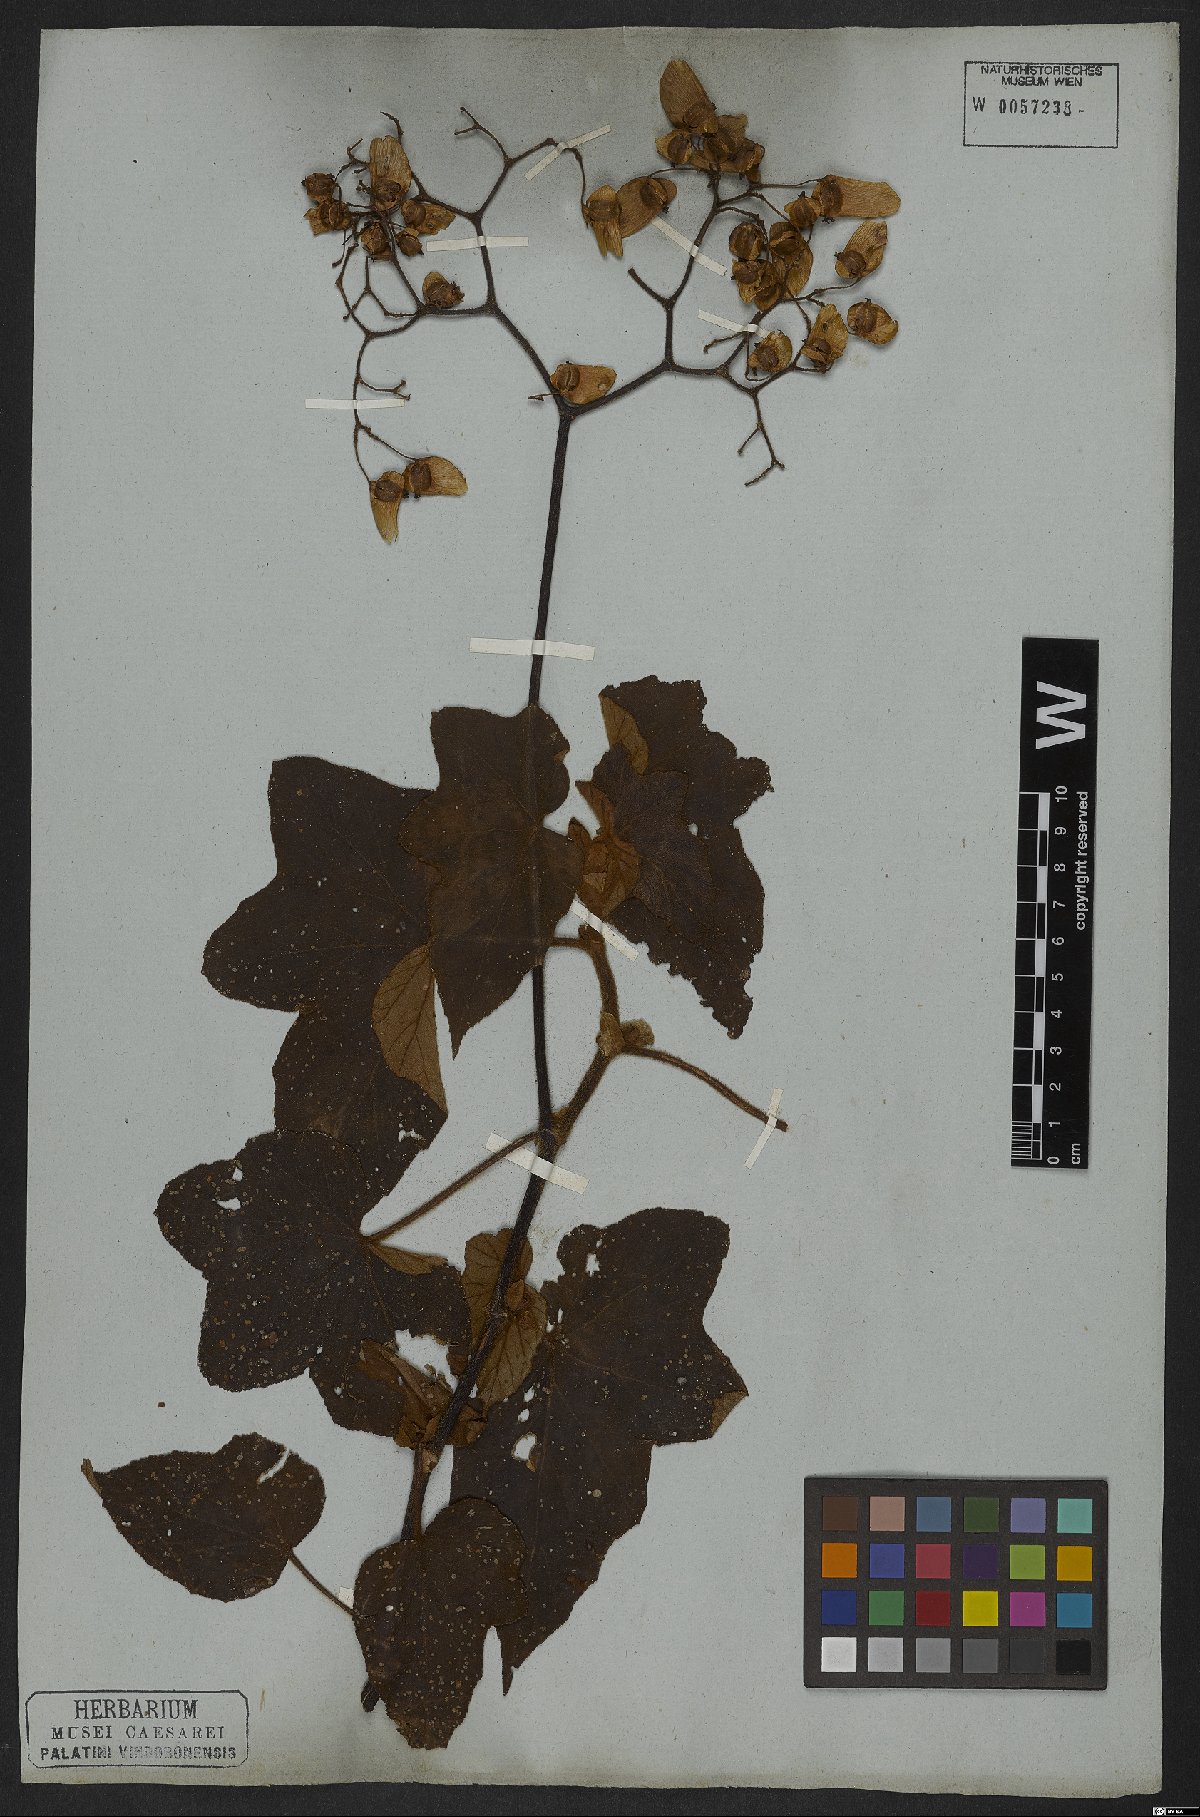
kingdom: Plantae
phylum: Tracheophyta
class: Magnoliopsida
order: Cucurbitales
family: Begoniaceae
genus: Begonia
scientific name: Begonia rufa
